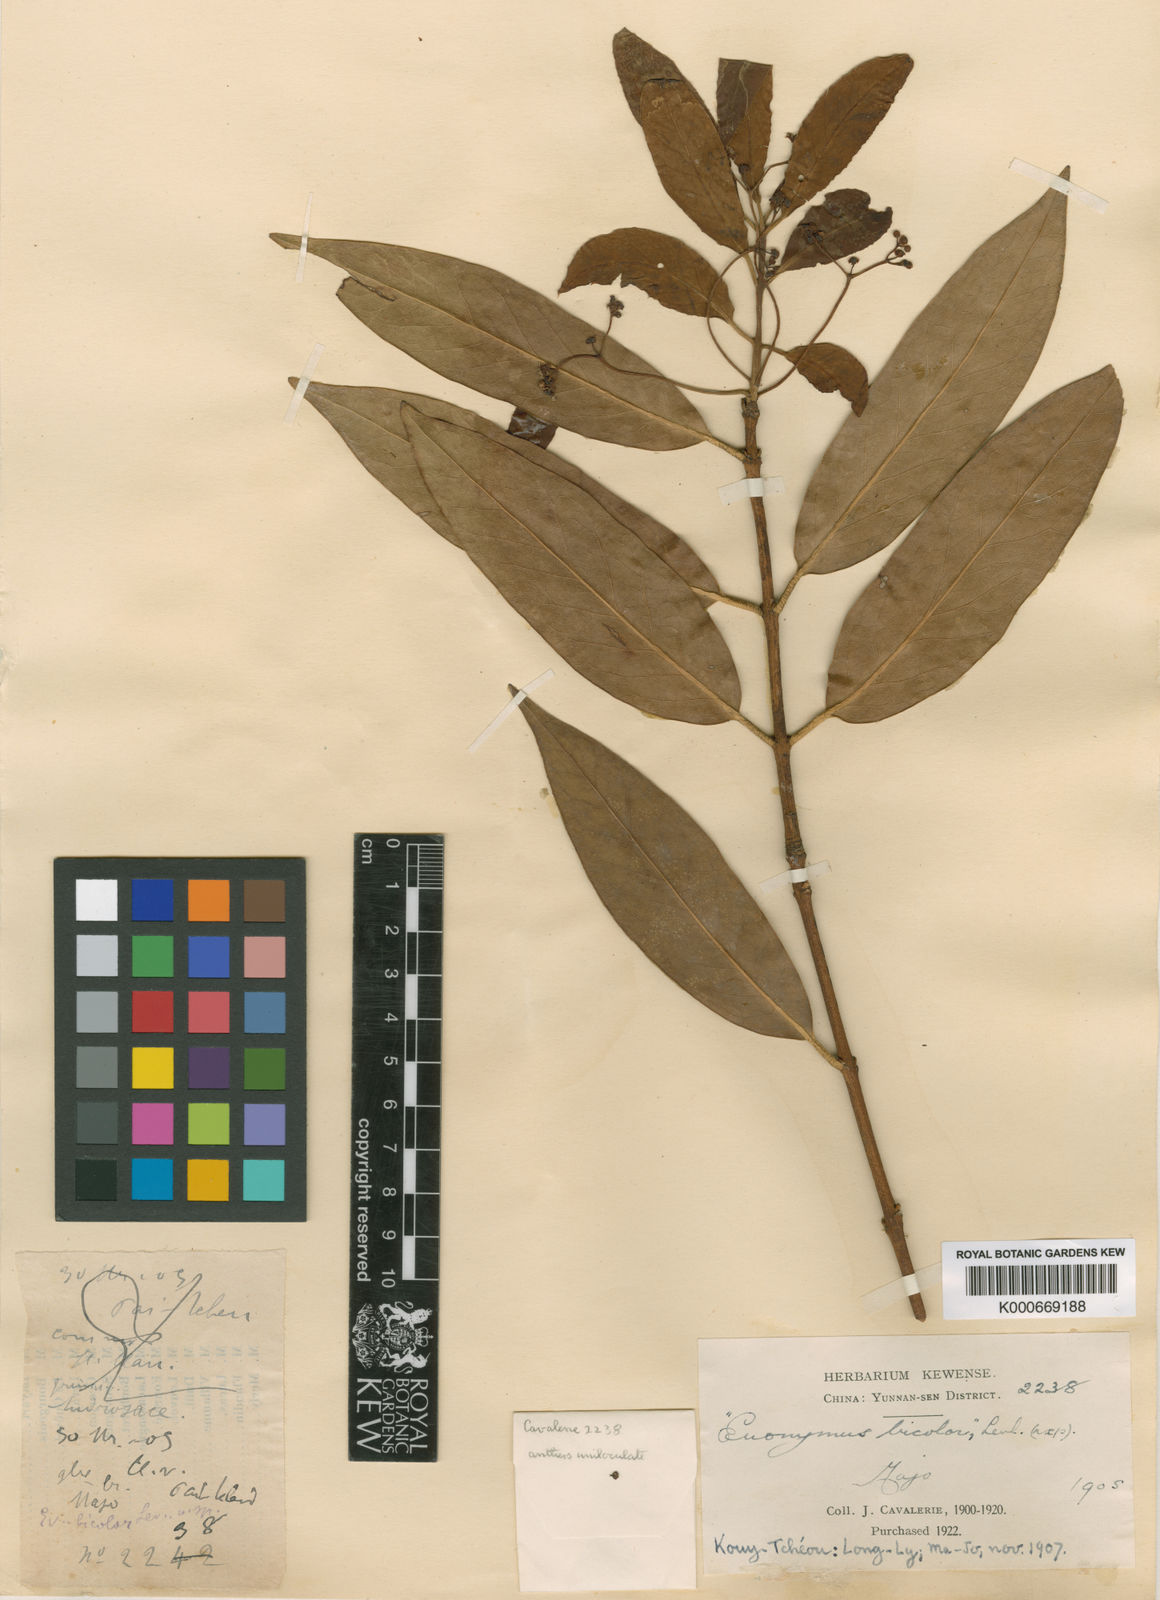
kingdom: Plantae
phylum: Tracheophyta
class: Magnoliopsida
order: Celastrales
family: Celastraceae
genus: Euonymus
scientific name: Euonymus rehderianus
